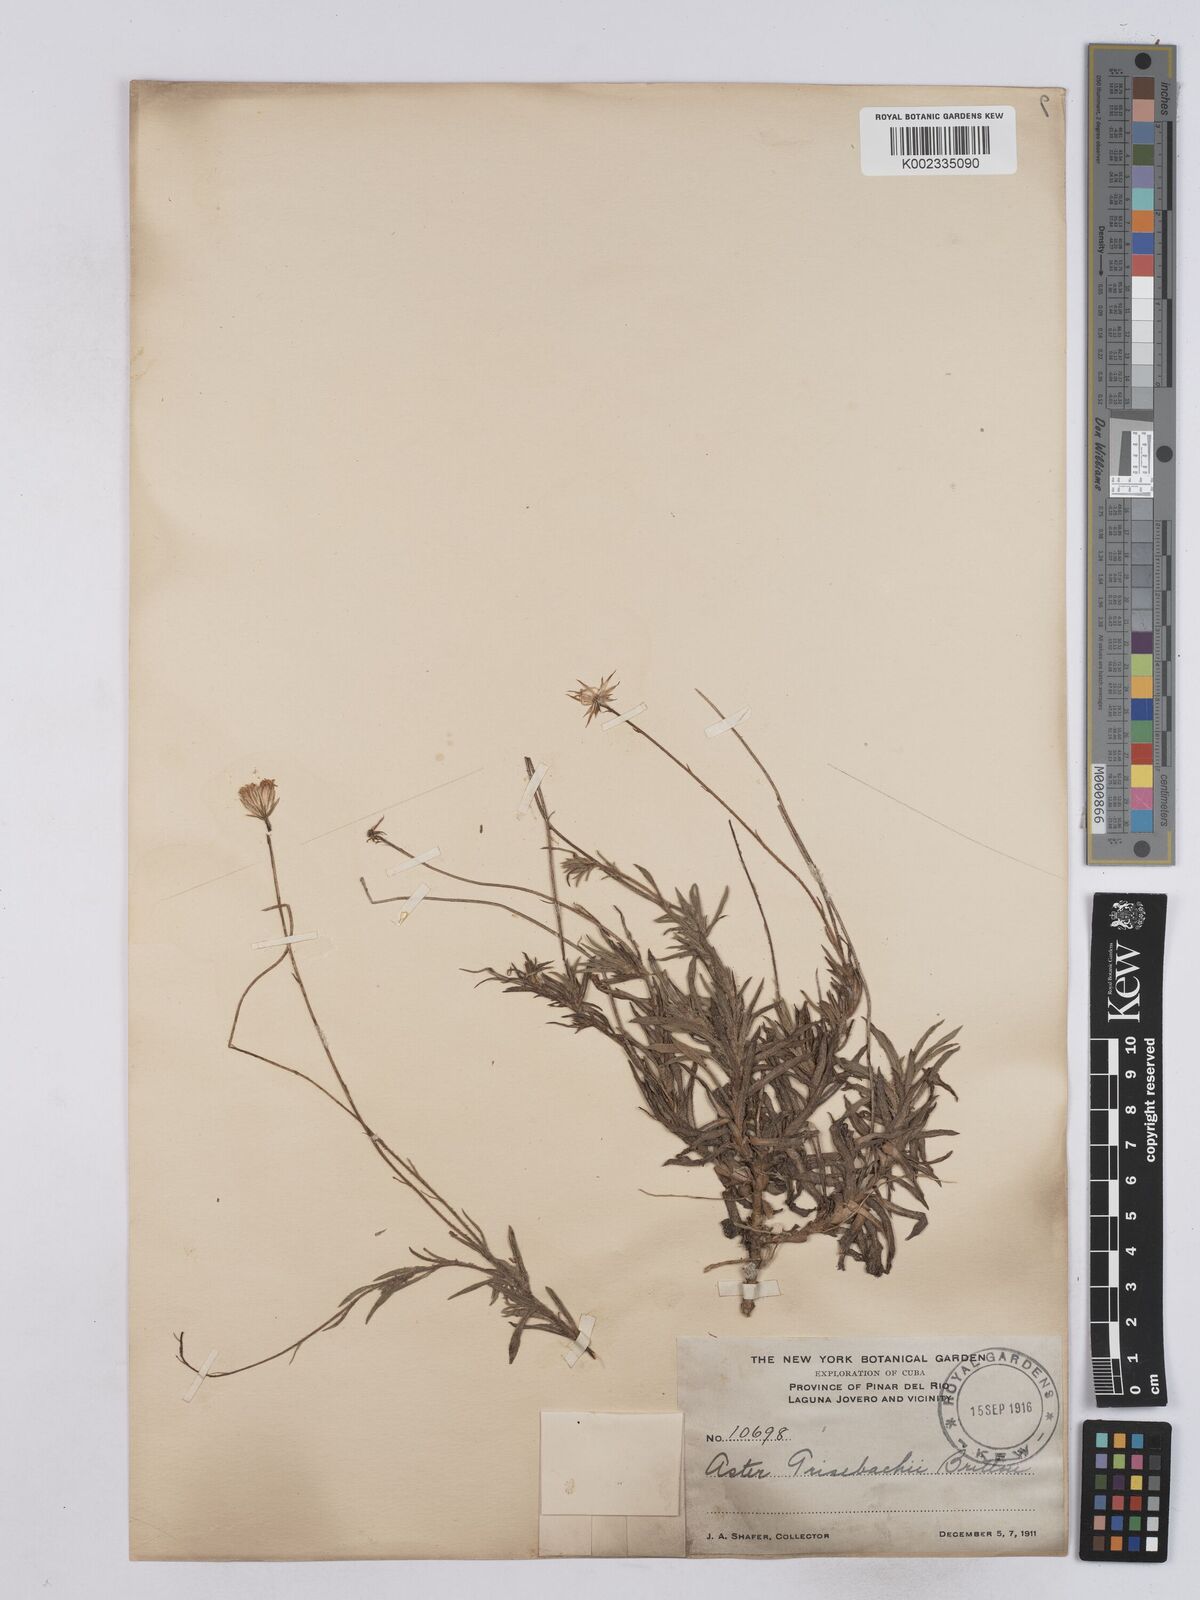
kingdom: Plantae
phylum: Tracheophyta
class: Magnoliopsida
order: Asterales
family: Asteraceae
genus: Neja
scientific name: Neja marginata
